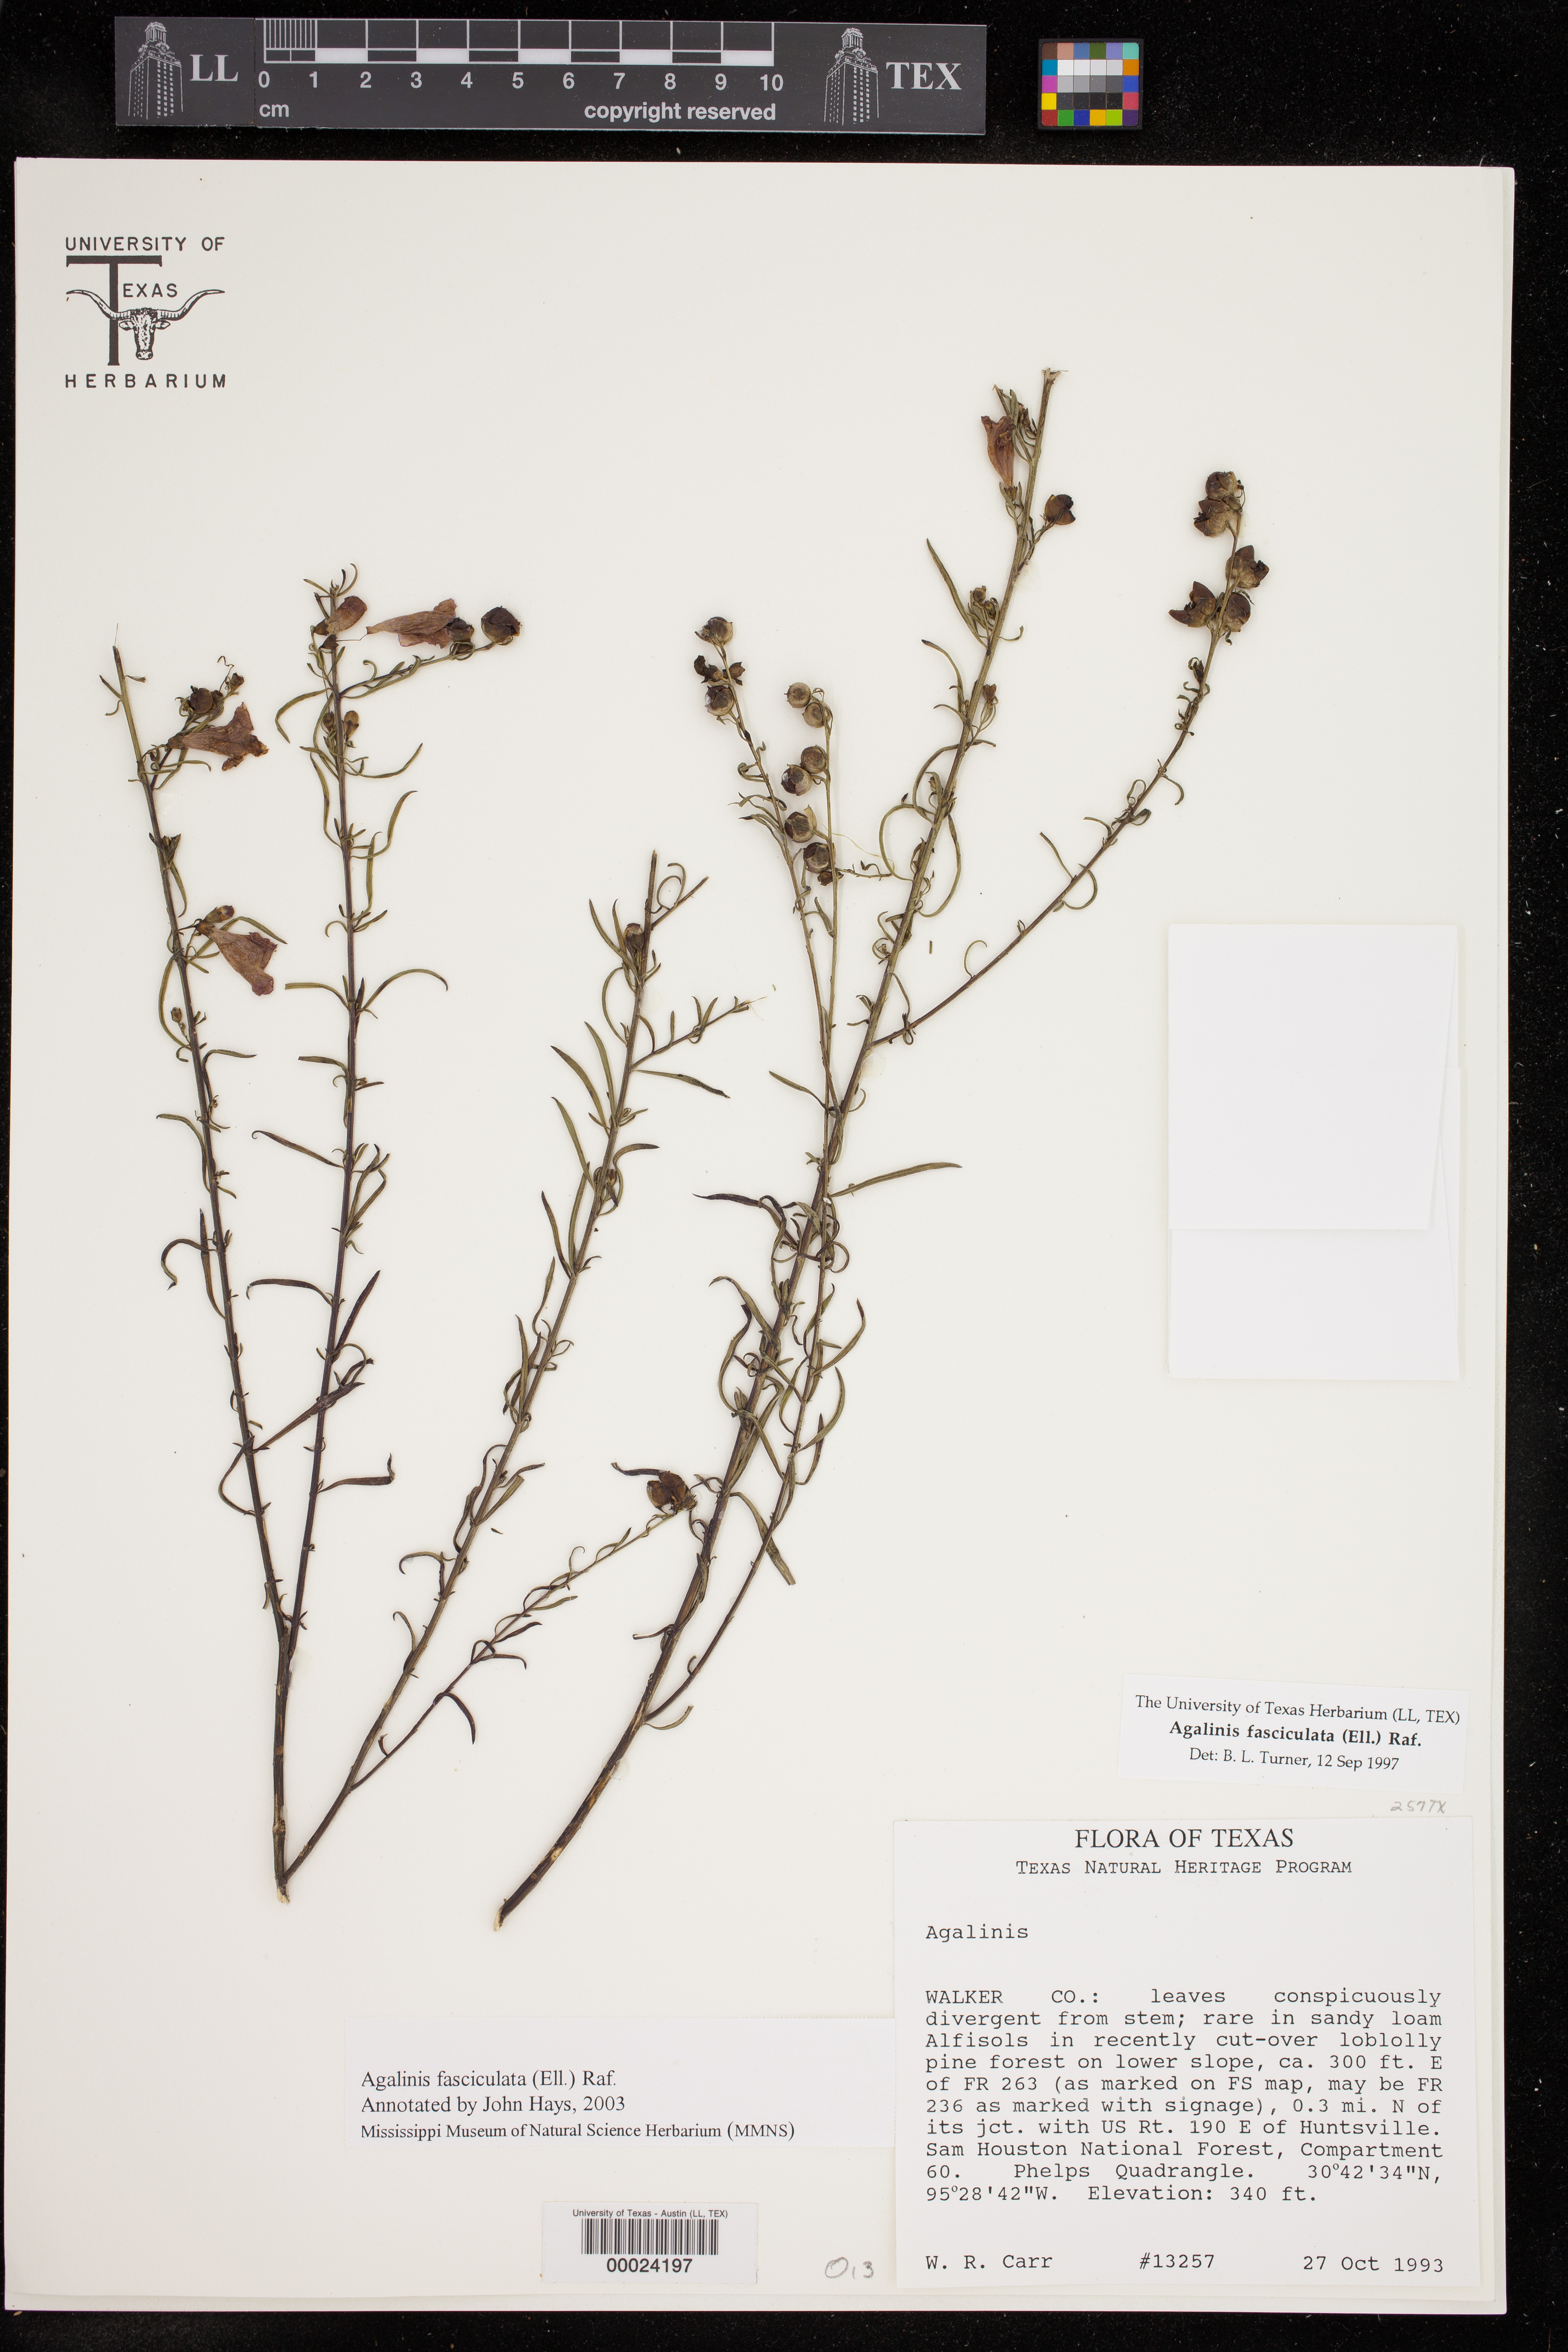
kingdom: Plantae
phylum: Tracheophyta
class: Magnoliopsida
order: Lamiales
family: Orobanchaceae
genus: Agalinis
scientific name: Agalinis fasciculata
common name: Beach false foxglove
